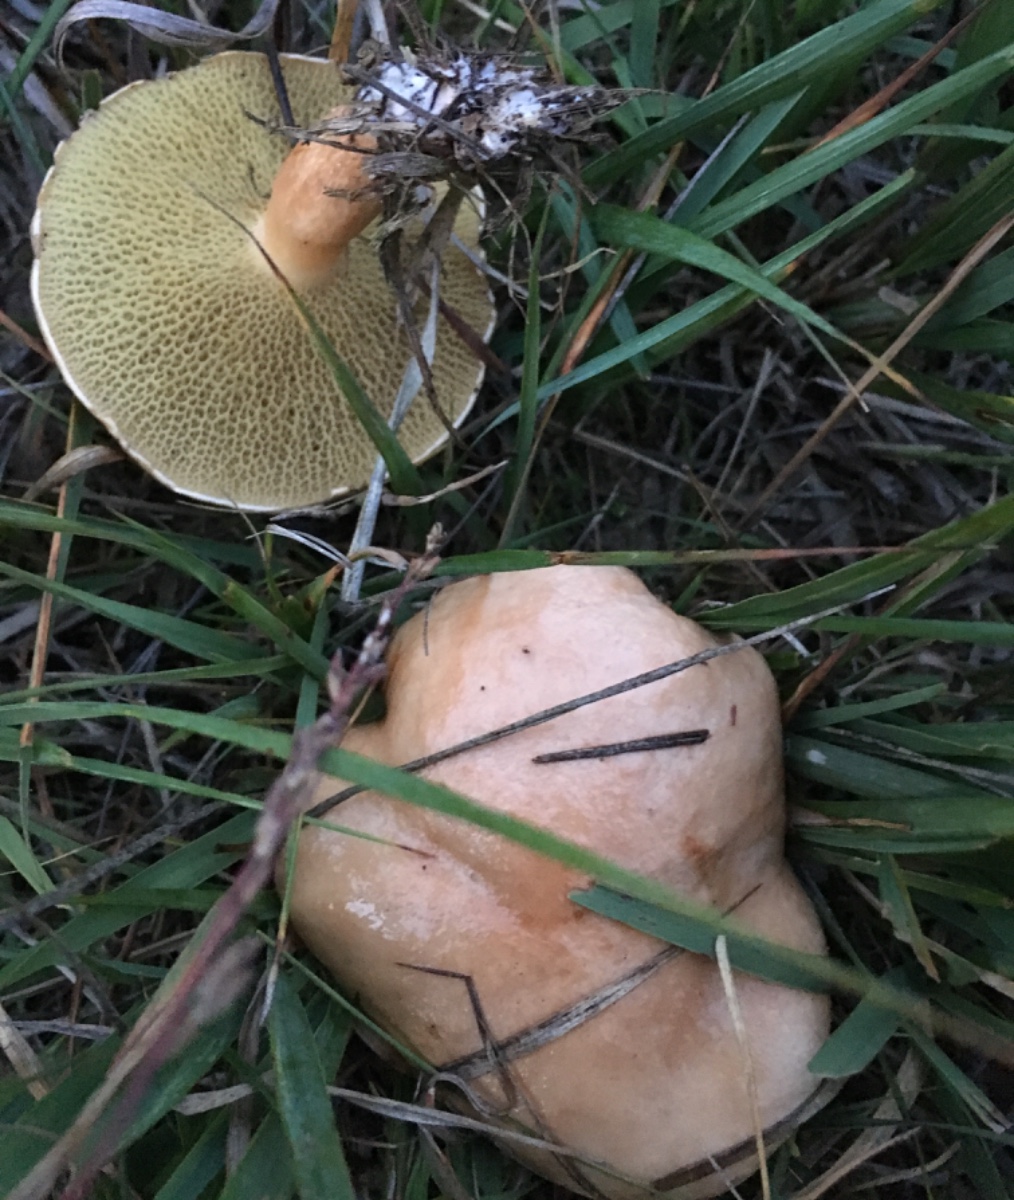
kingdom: Fungi
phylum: Basidiomycota
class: Agaricomycetes
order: Boletales
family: Suillaceae
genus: Suillus
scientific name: Suillus bovinus
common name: grovporet slimrørhat
